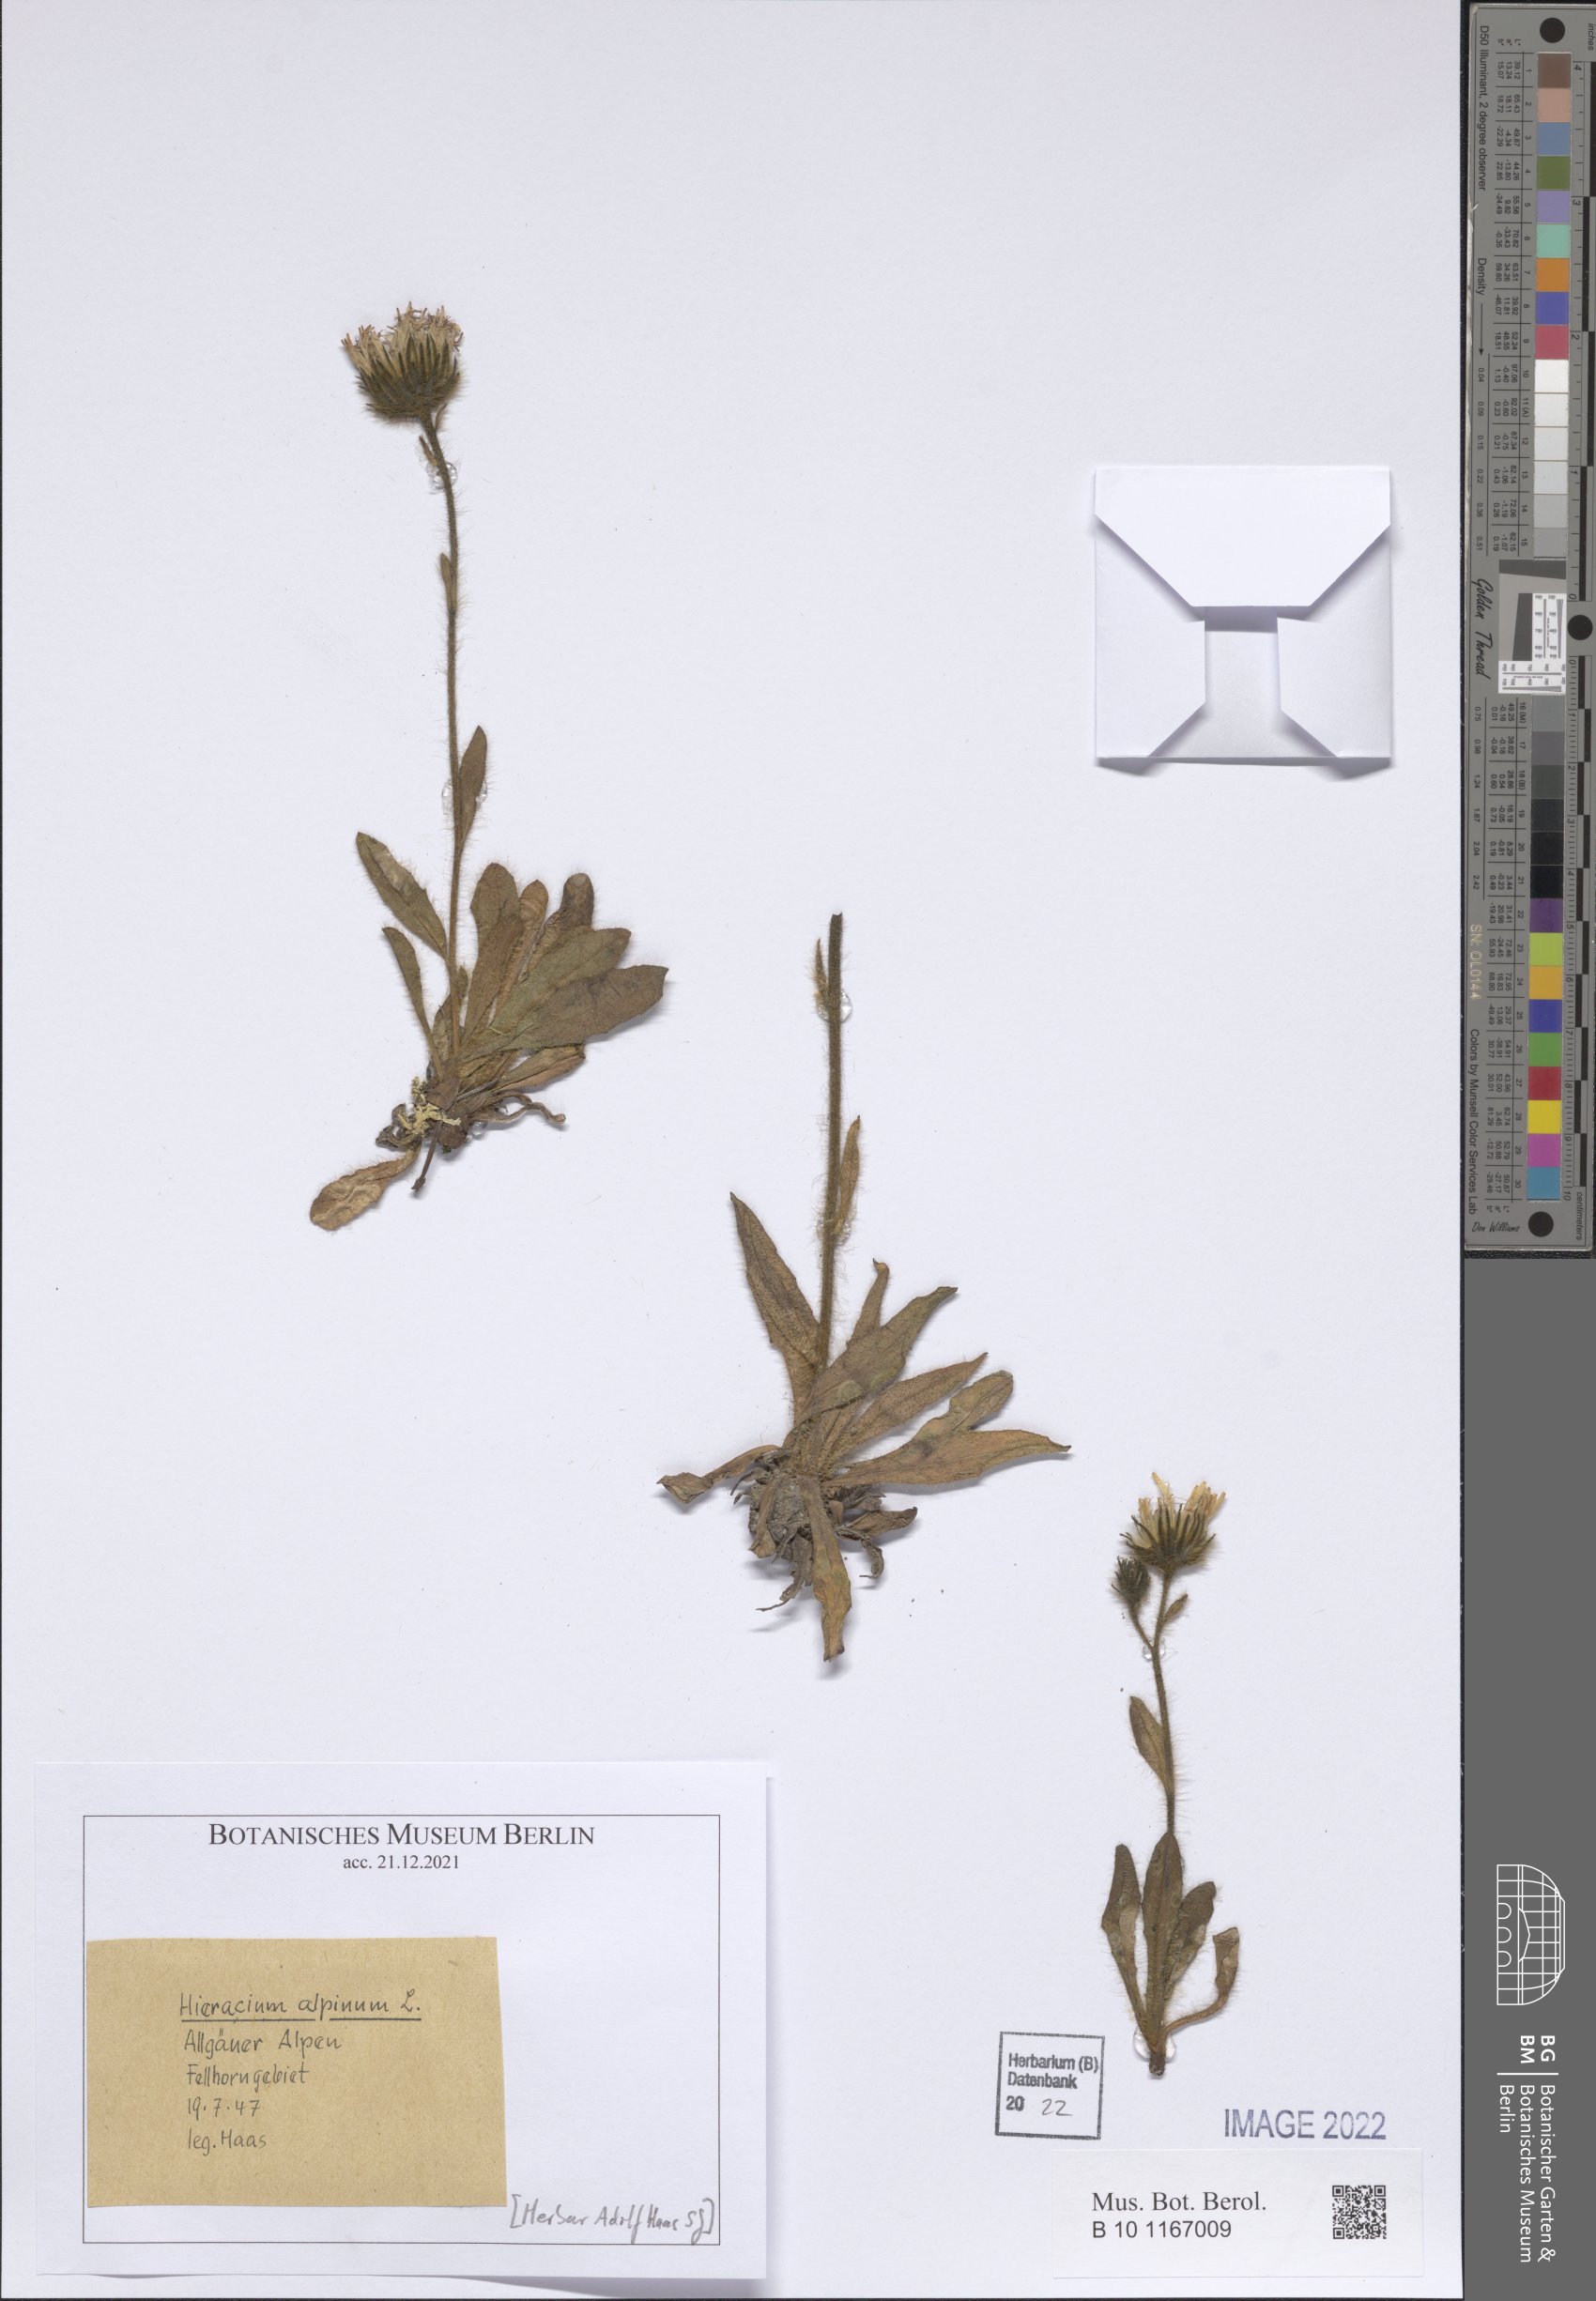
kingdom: Plantae
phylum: Tracheophyta
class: Magnoliopsida
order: Asterales
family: Asteraceae
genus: Hieracium
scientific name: Hieracium alpinum
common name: Alpine hawkweed
